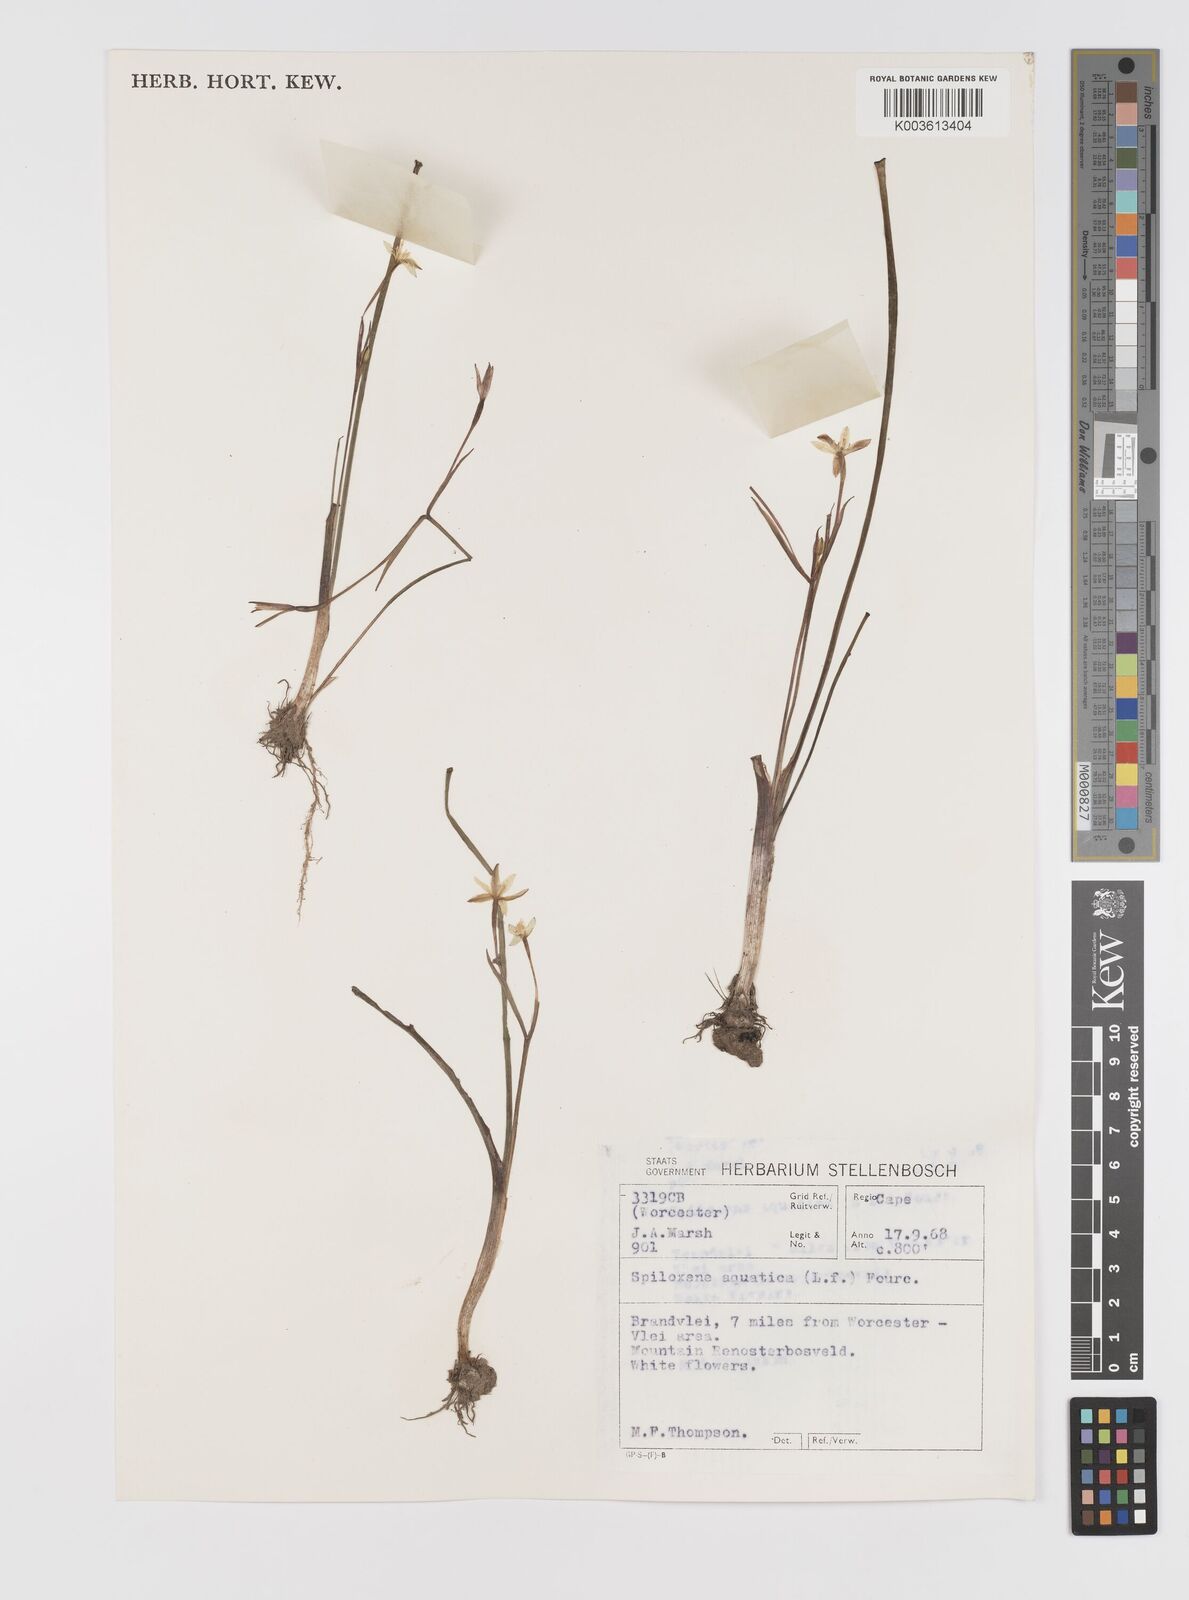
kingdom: Plantae
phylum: Tracheophyta
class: Liliopsida
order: Asparagales
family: Hypoxidaceae
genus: Pauridia
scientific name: Pauridia aquatica
